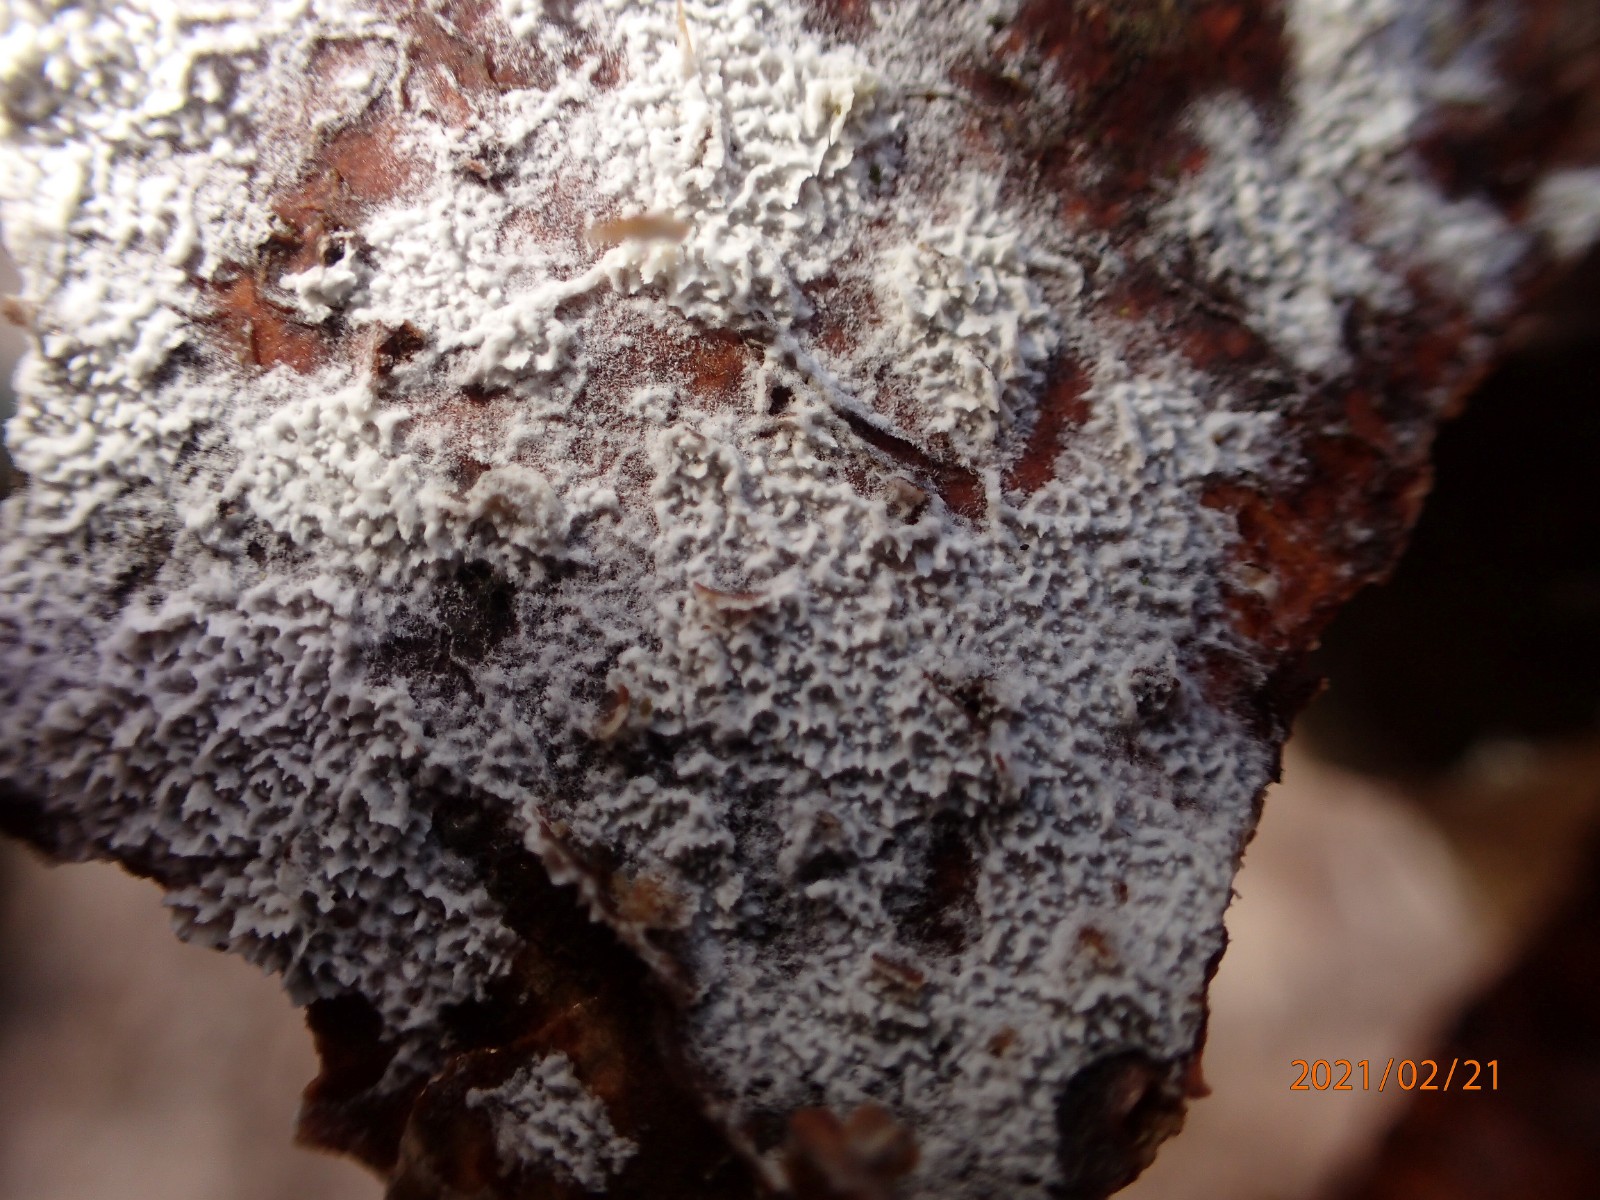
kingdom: Fungi
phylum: Basidiomycota
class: Agaricomycetes
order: Corticiales
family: Corticiaceae
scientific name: Corticiaceae
